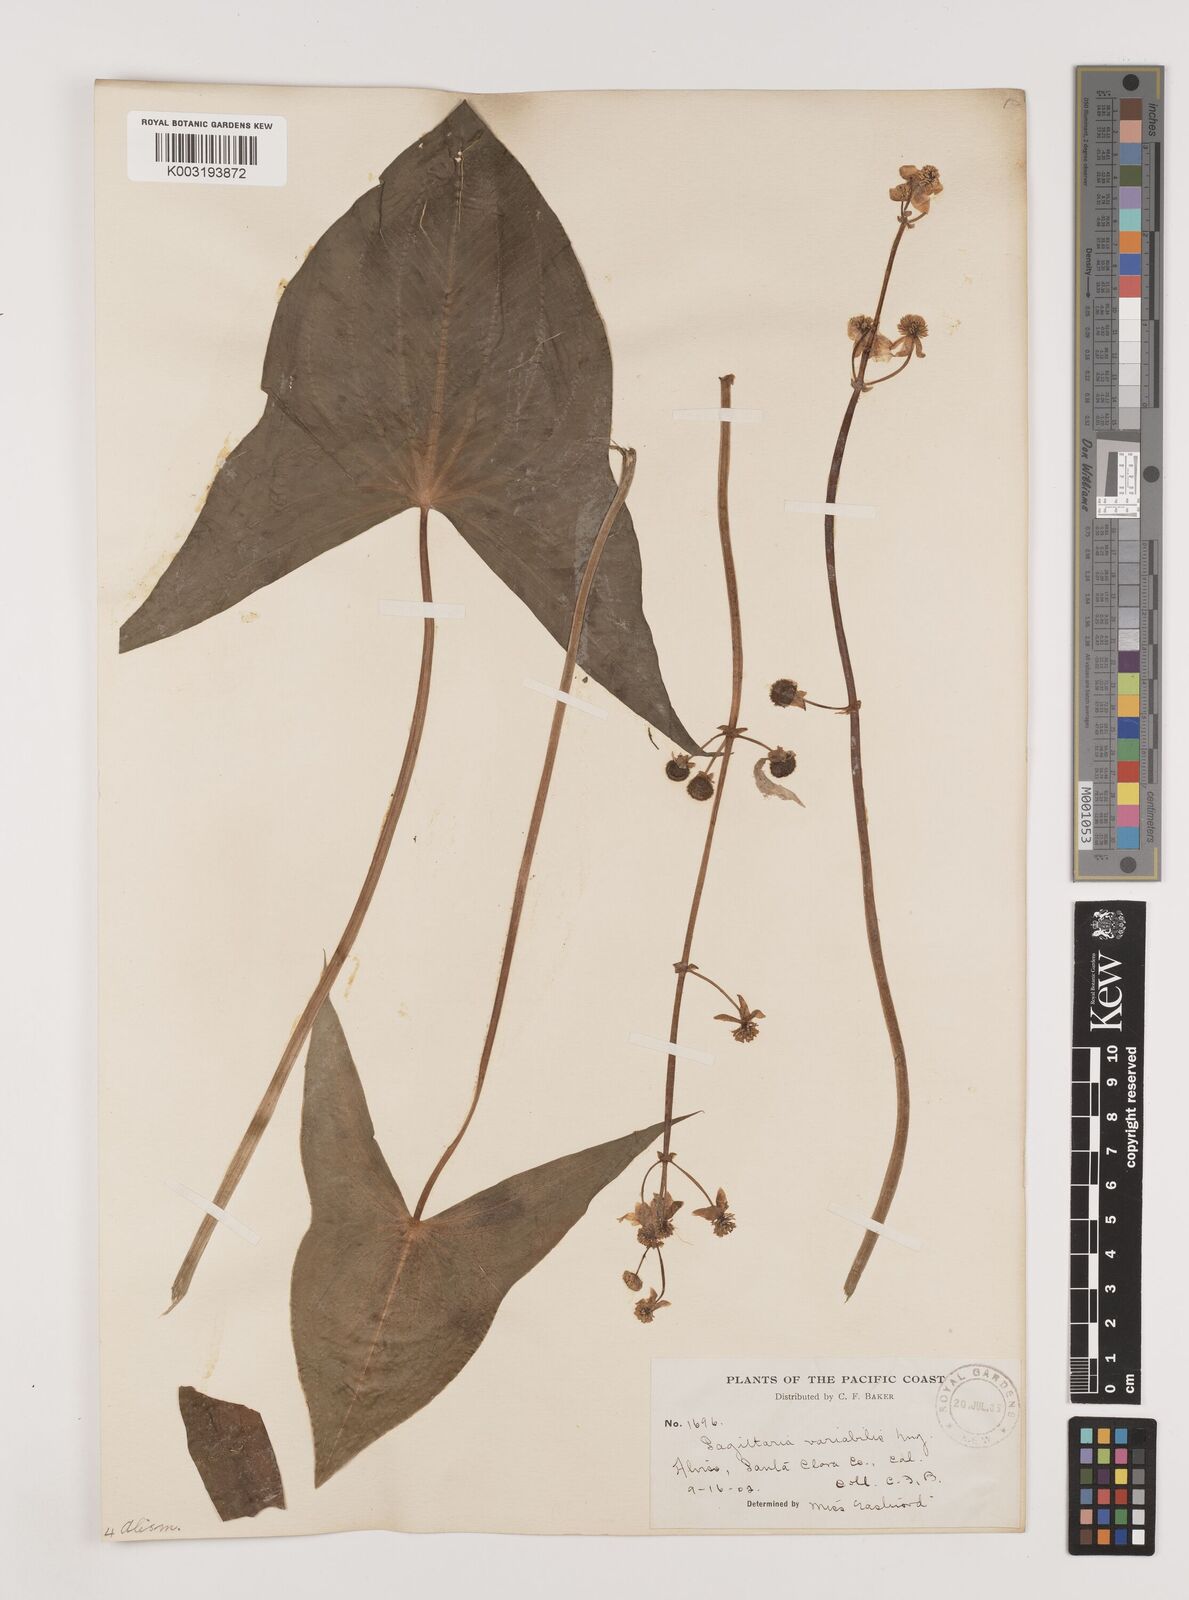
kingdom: Plantae
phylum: Tracheophyta
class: Liliopsida
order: Alismatales
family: Alismataceae
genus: Sagittaria
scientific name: Sagittaria latifolia
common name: Duck-potato
